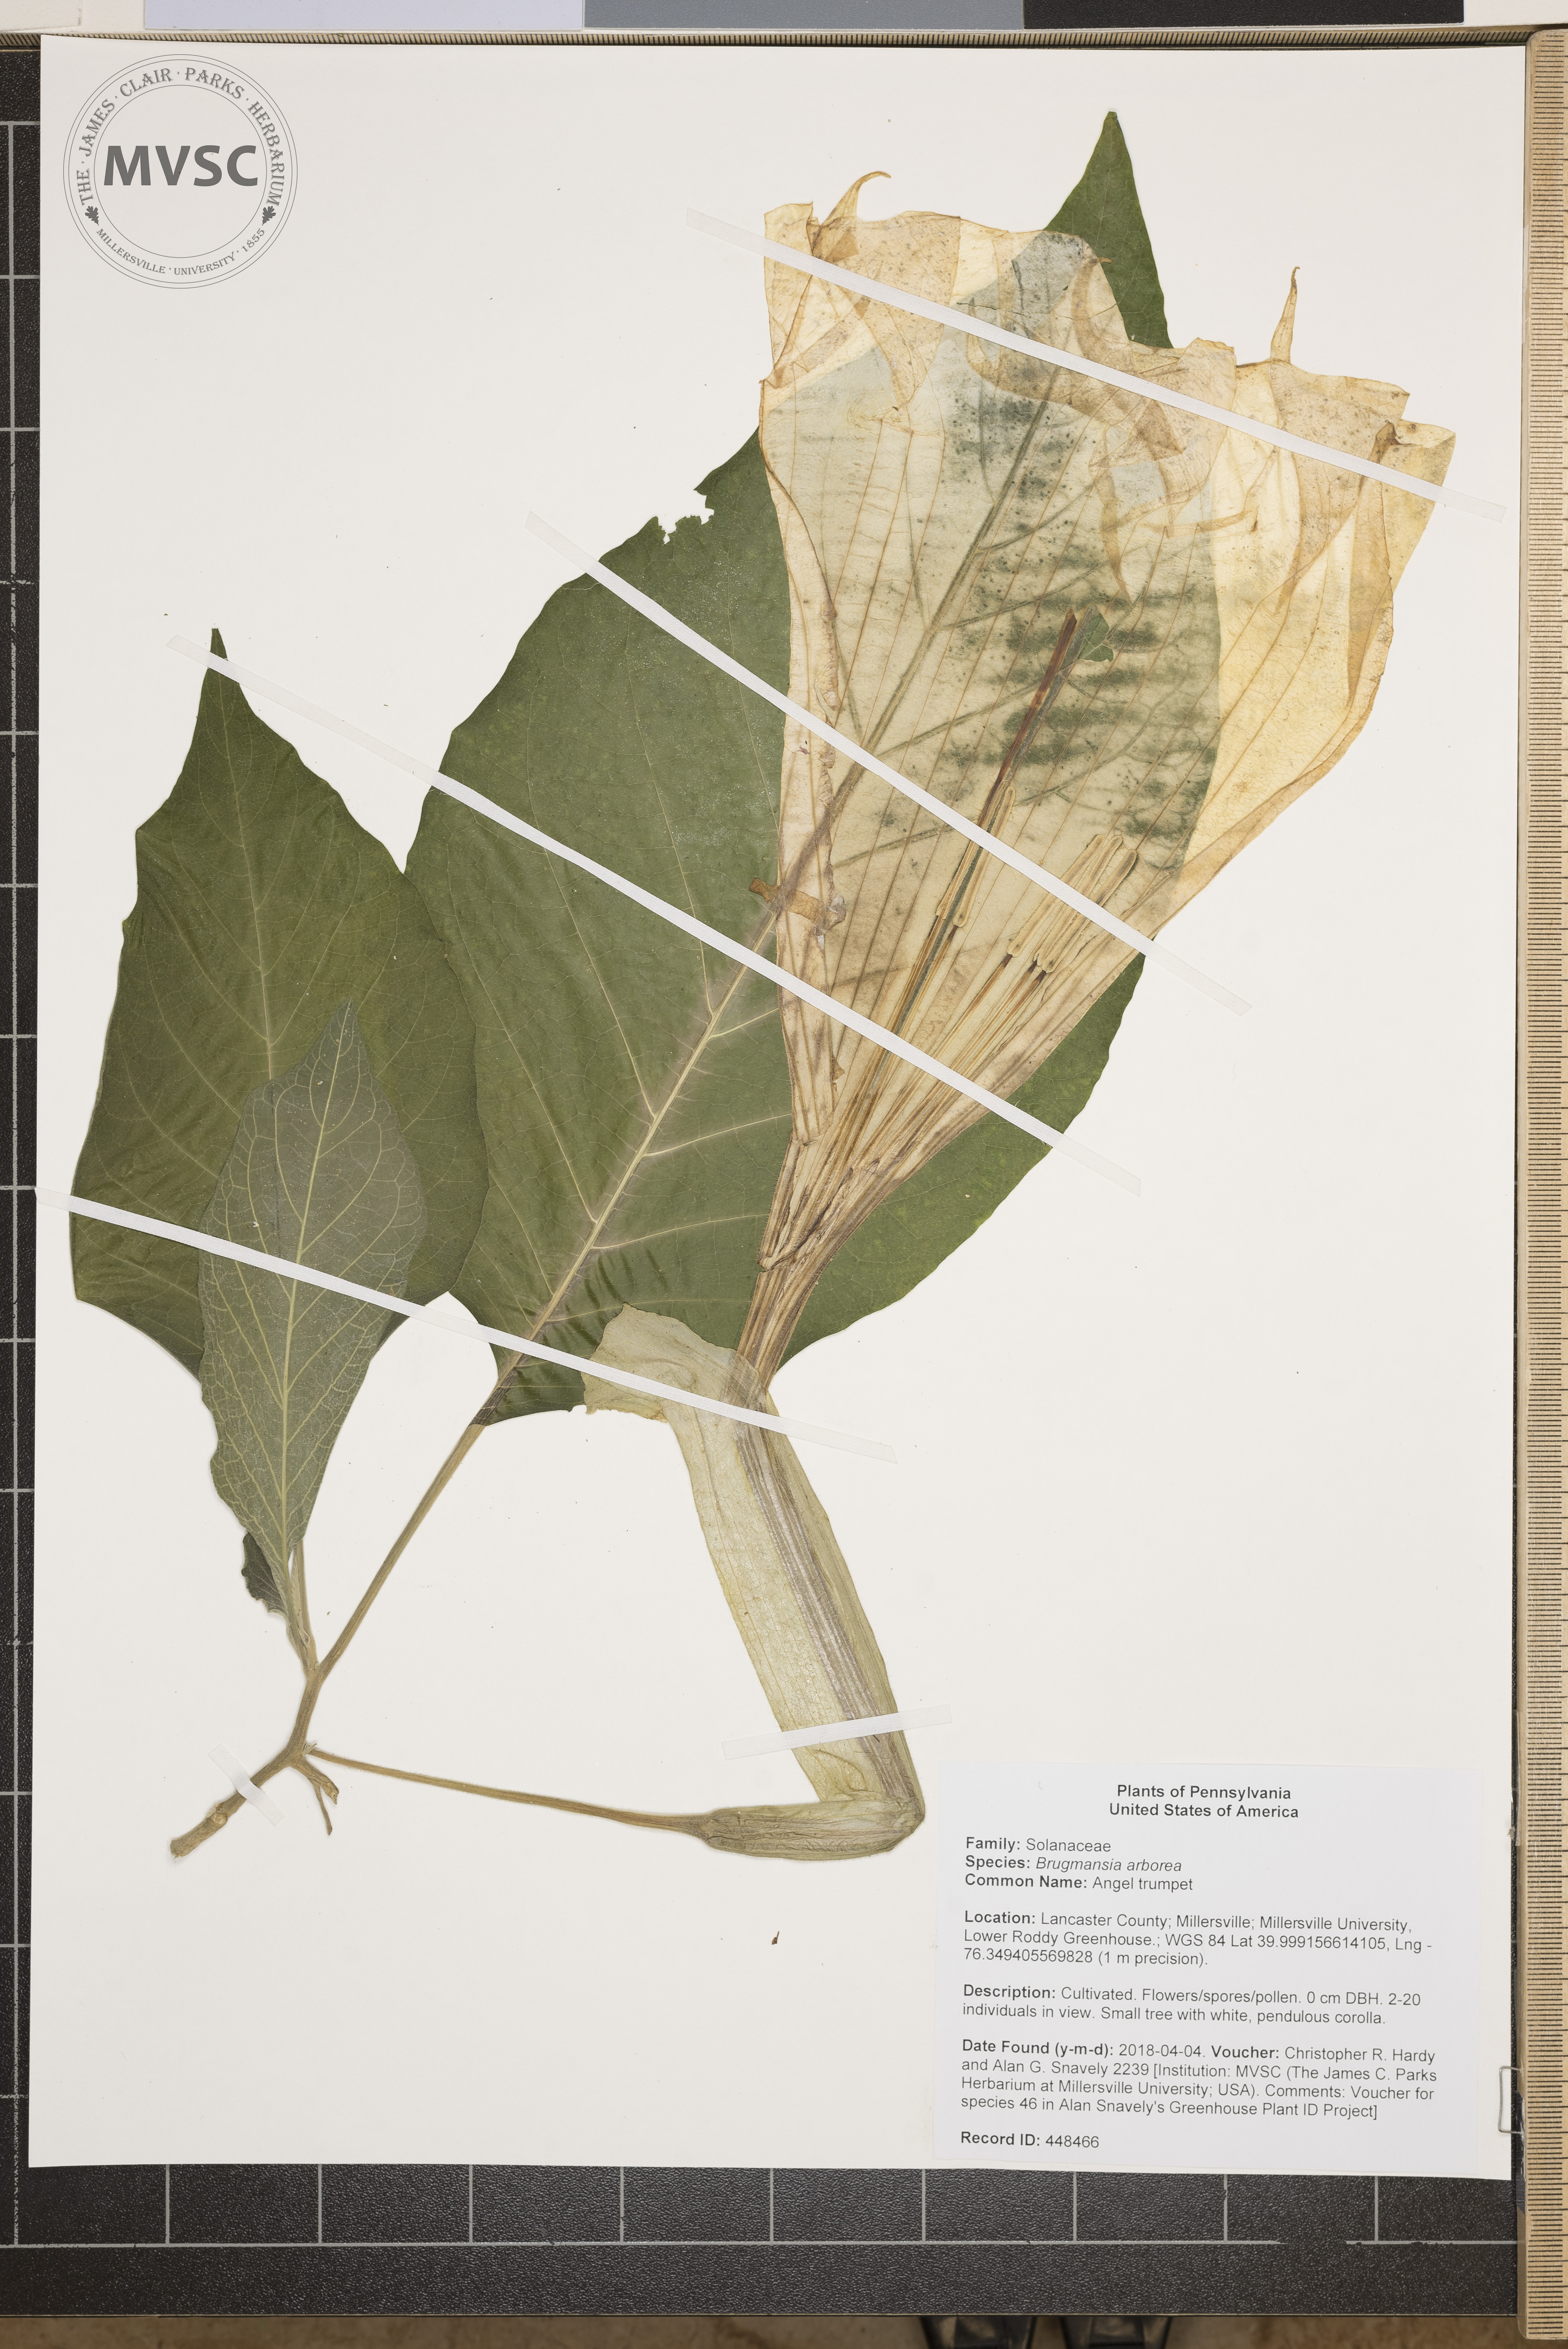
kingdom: Plantae
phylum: Tracheophyta
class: Magnoliopsida
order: Solanales
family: Solanaceae
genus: Brugmansia
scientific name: Brugmansia arborea
